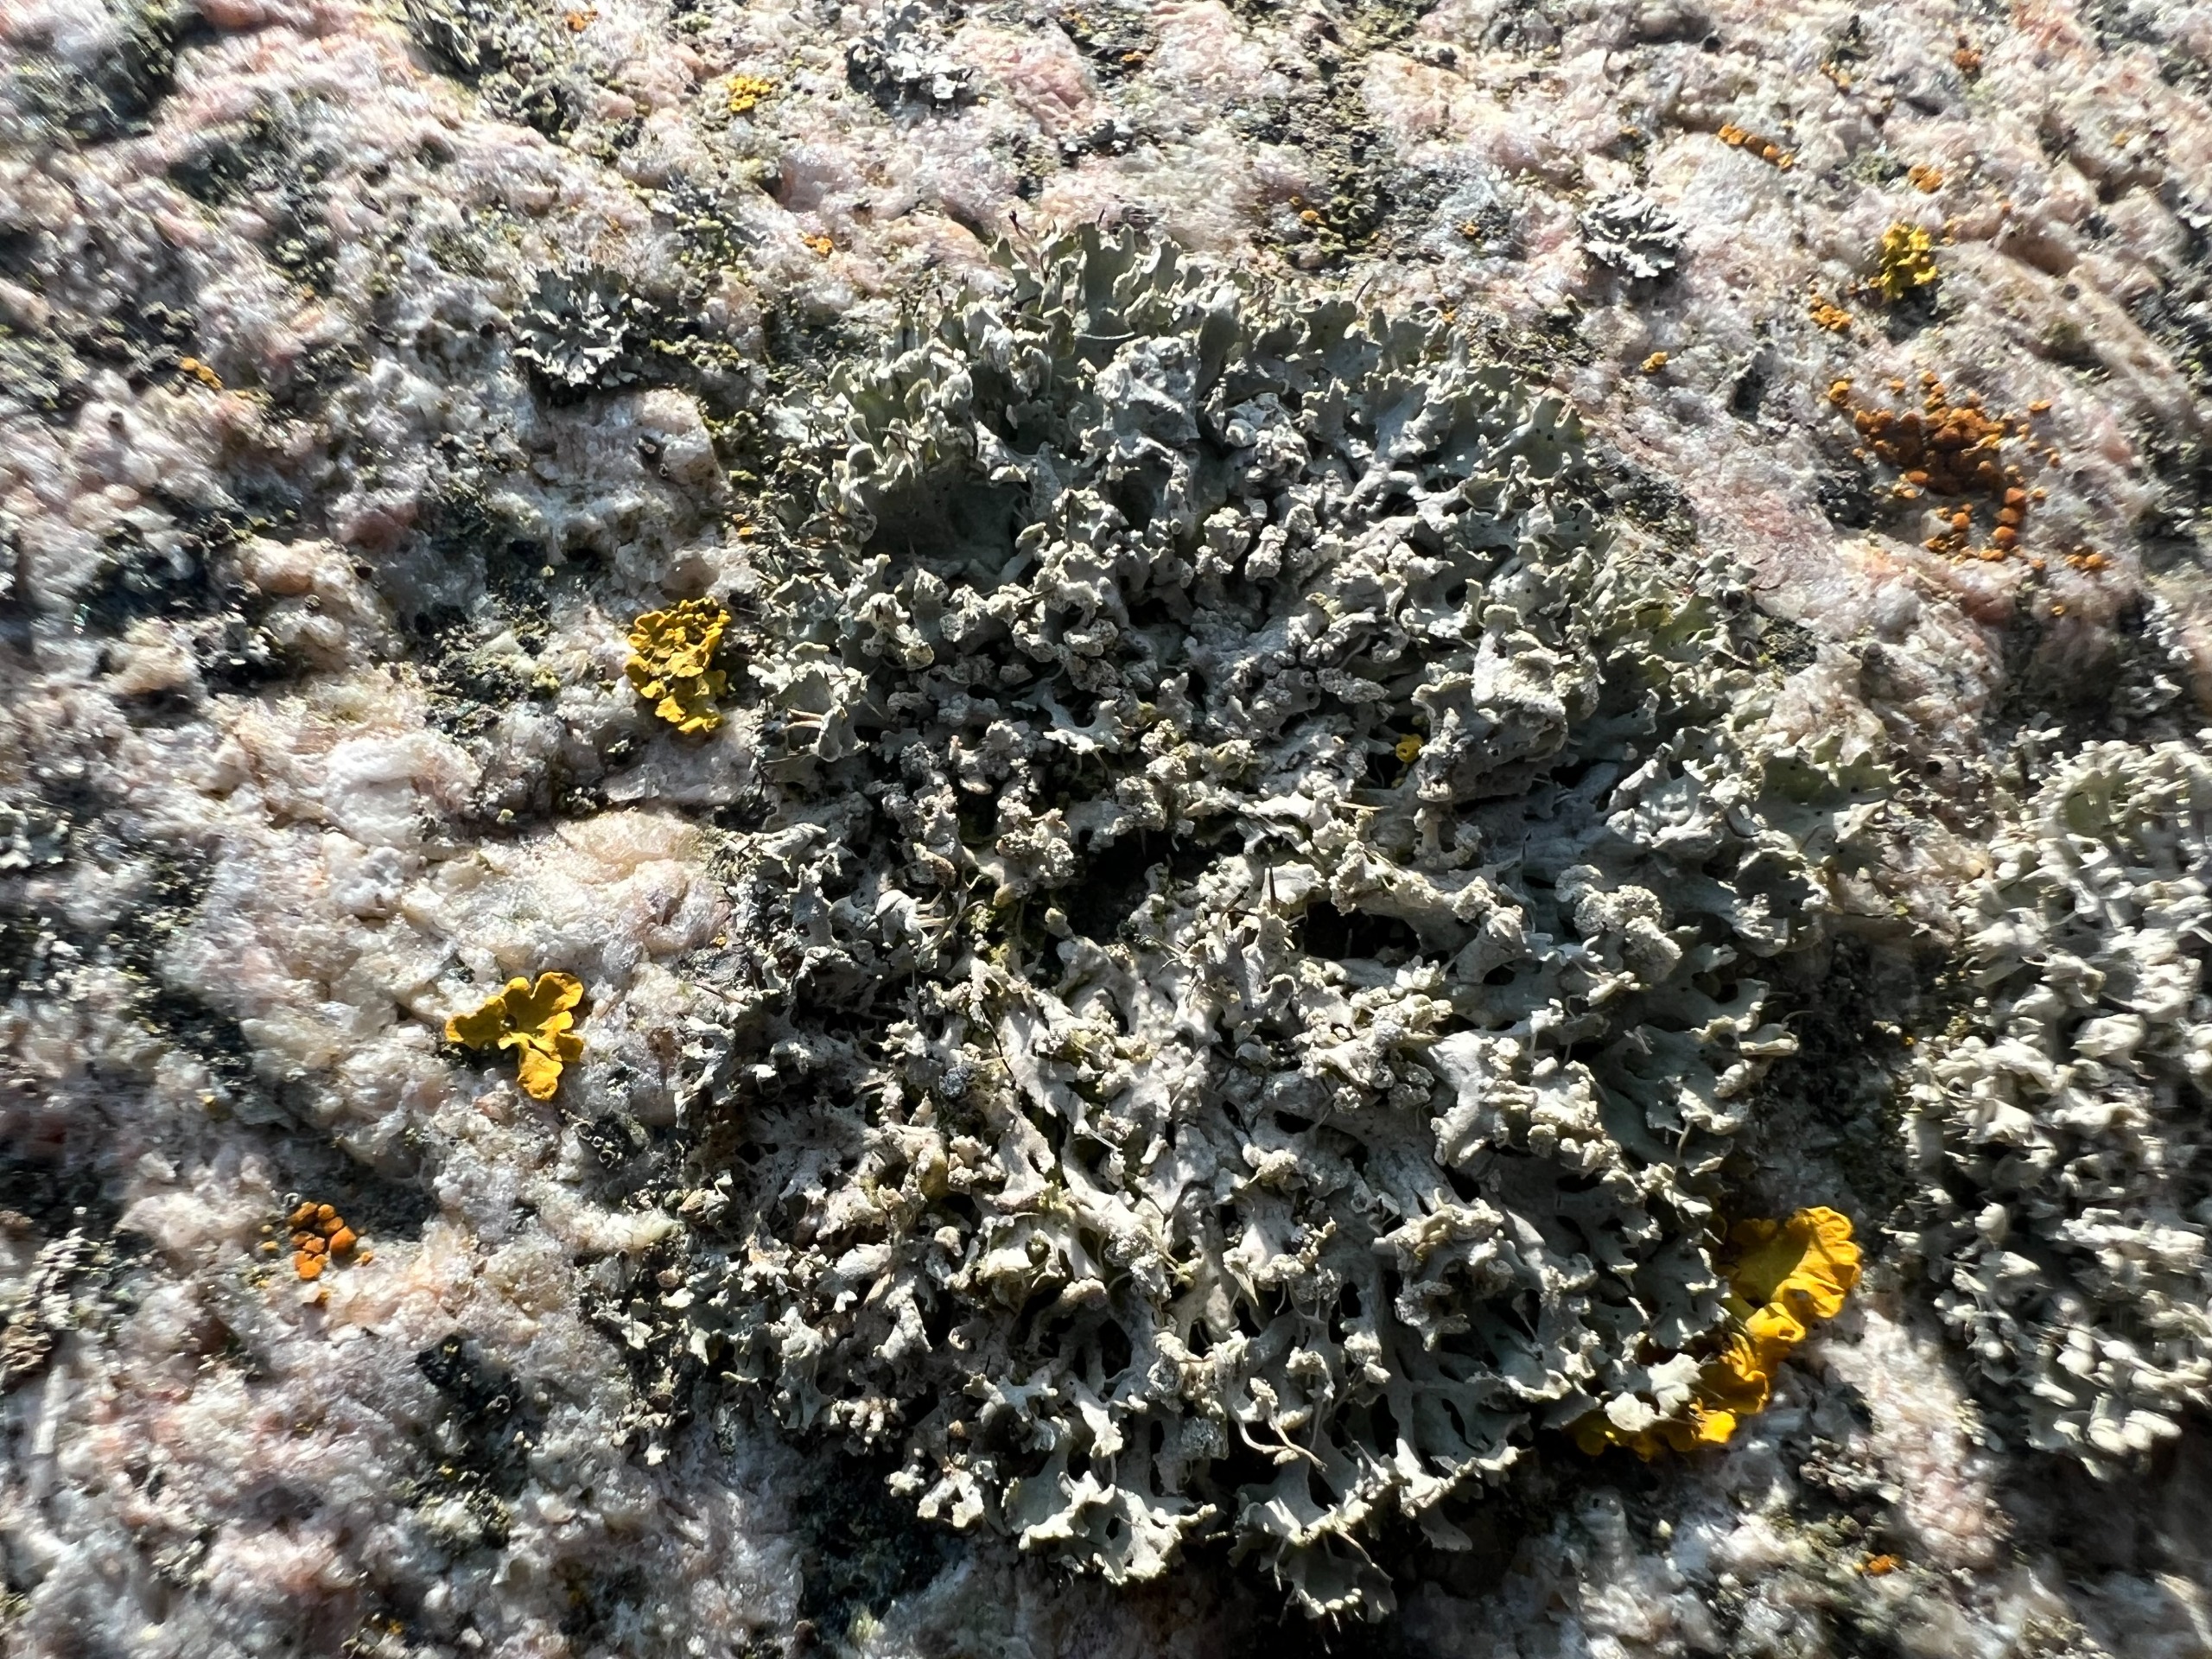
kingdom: Fungi
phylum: Ascomycota
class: Lecanoromycetes
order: Caliciales
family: Physciaceae
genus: Physcia
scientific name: Physcia tenella
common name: Spæd rosetlav
